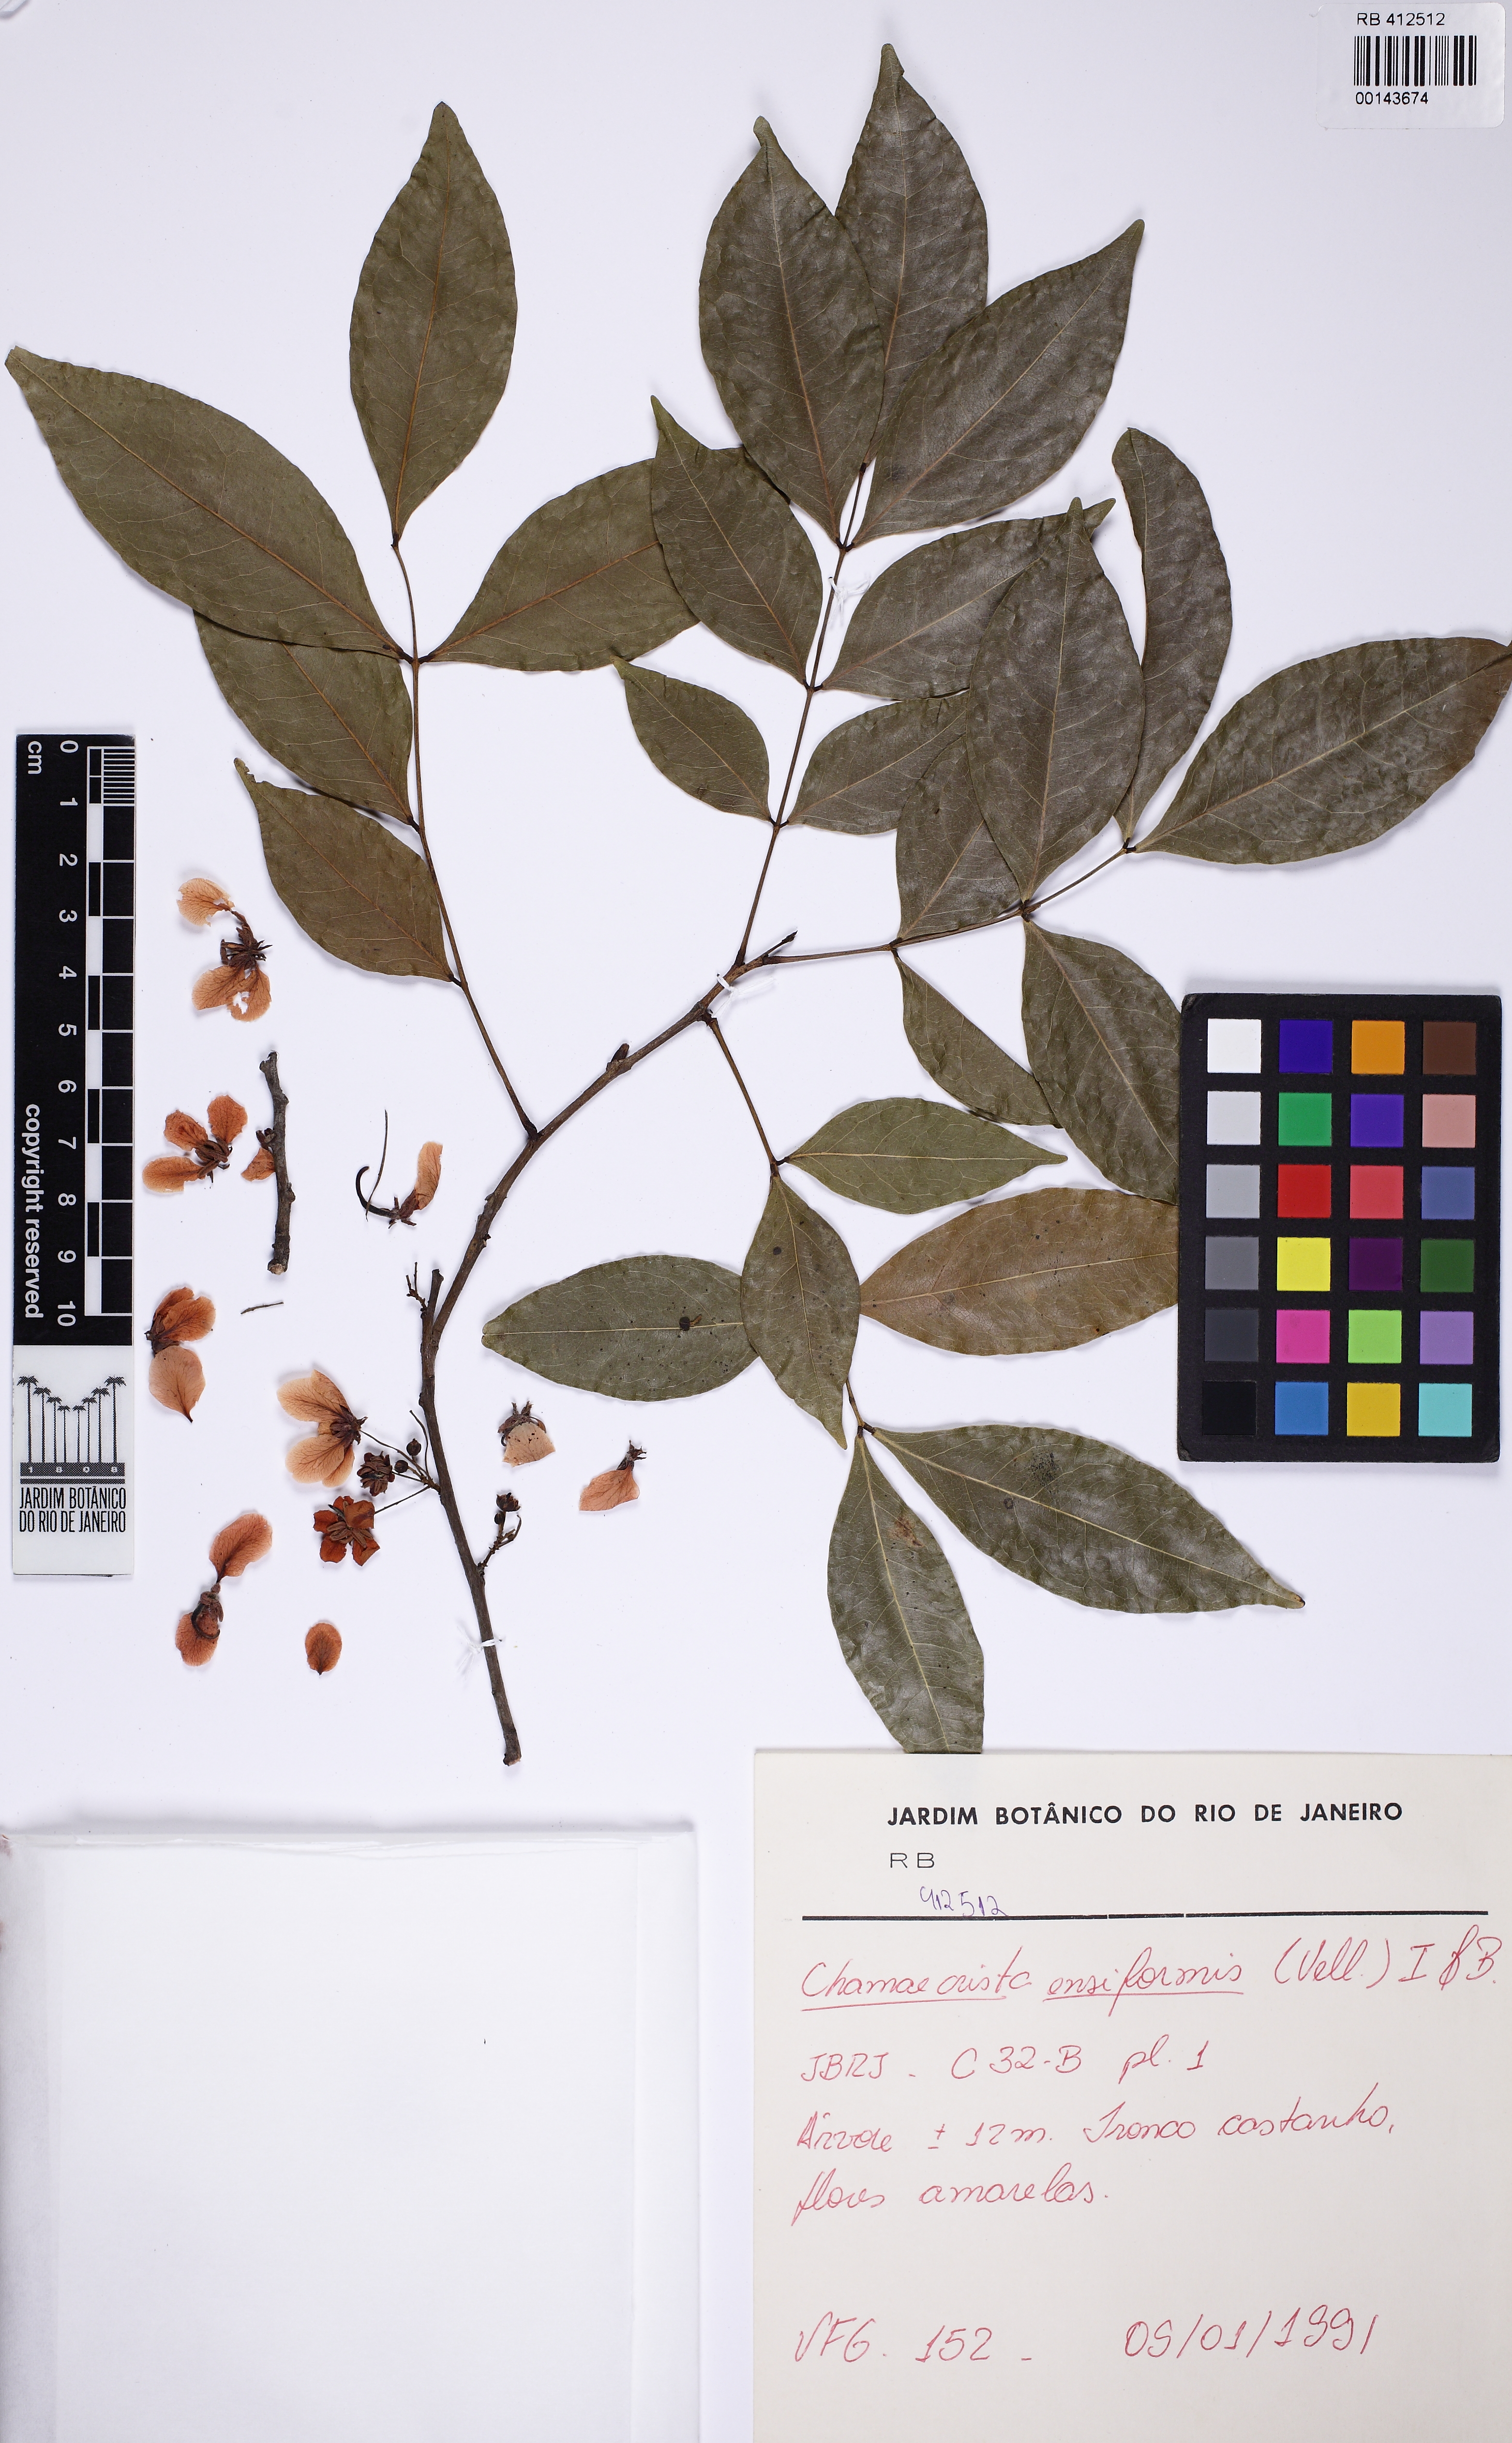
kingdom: Plantae
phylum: Tracheophyta
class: Magnoliopsida
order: Fabales
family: Fabaceae
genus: Chamaecrista
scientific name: Chamaecrista ensiformis
